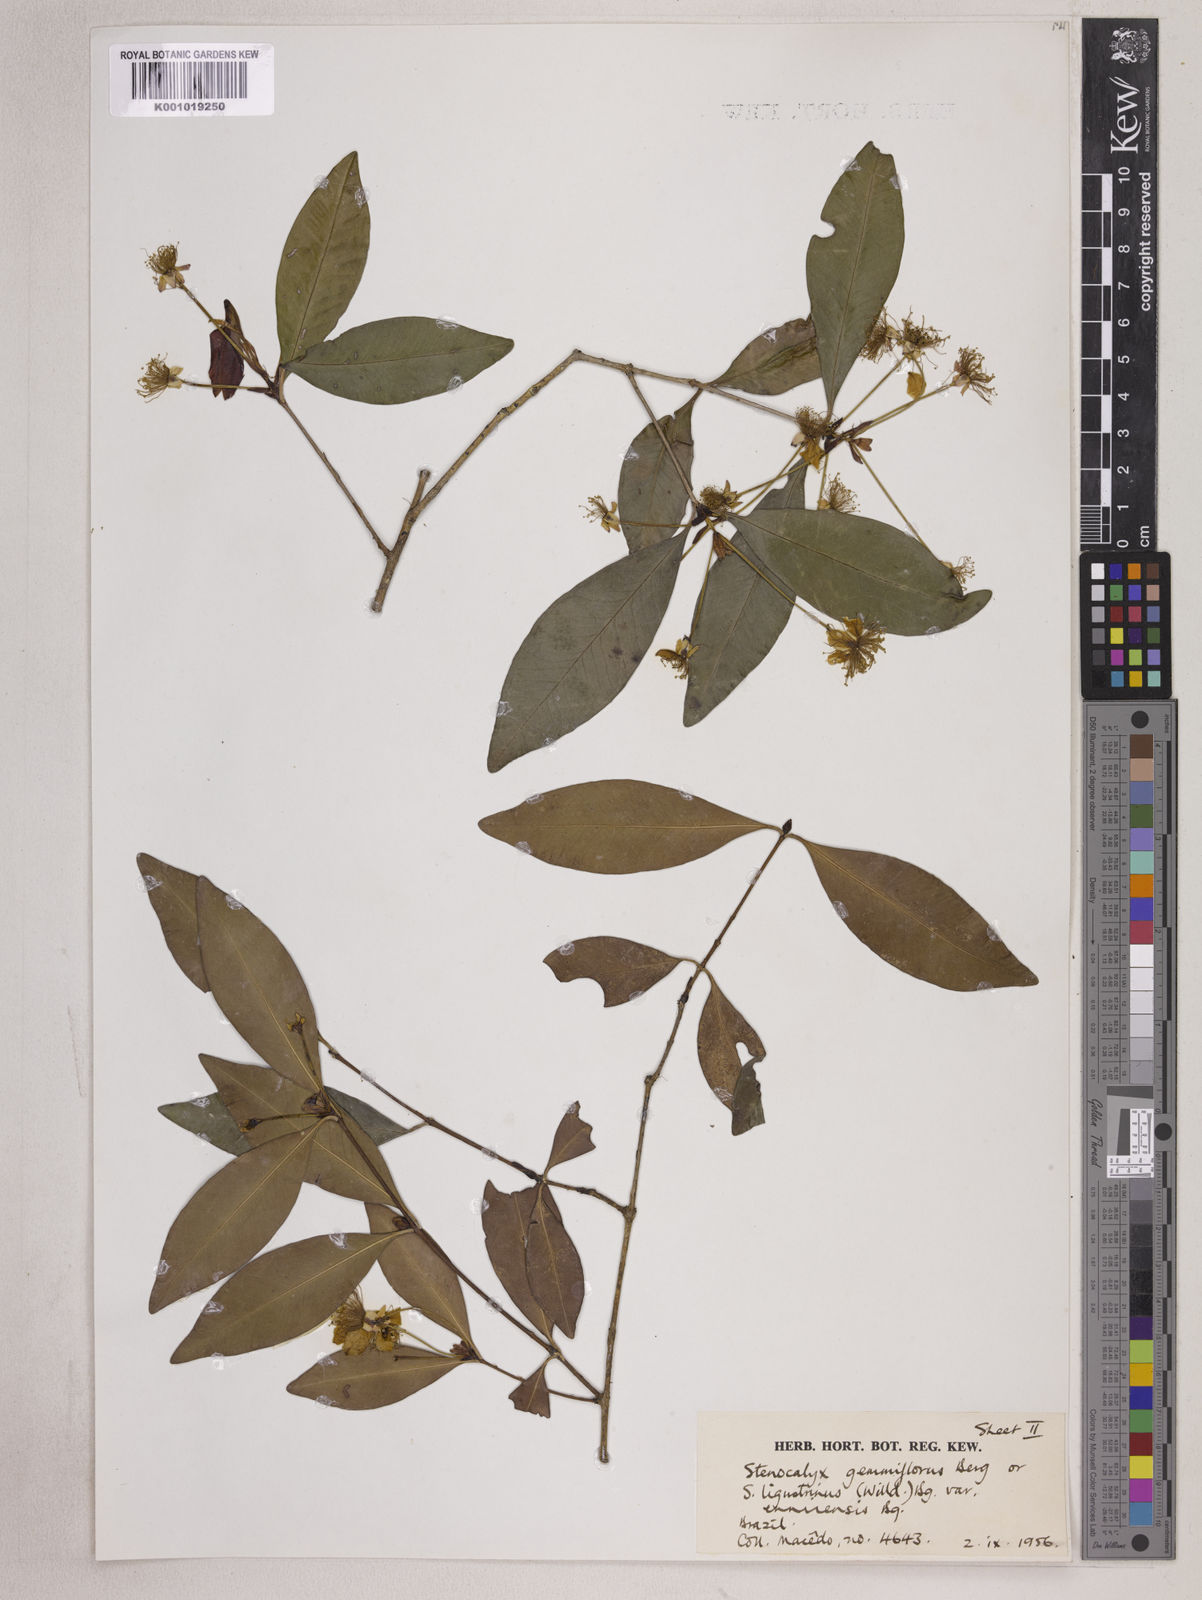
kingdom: Plantae
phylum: Tracheophyta
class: Magnoliopsida
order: Myrtales
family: Myrtaceae
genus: Eugenia
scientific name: Eugenia ophthalmantha
